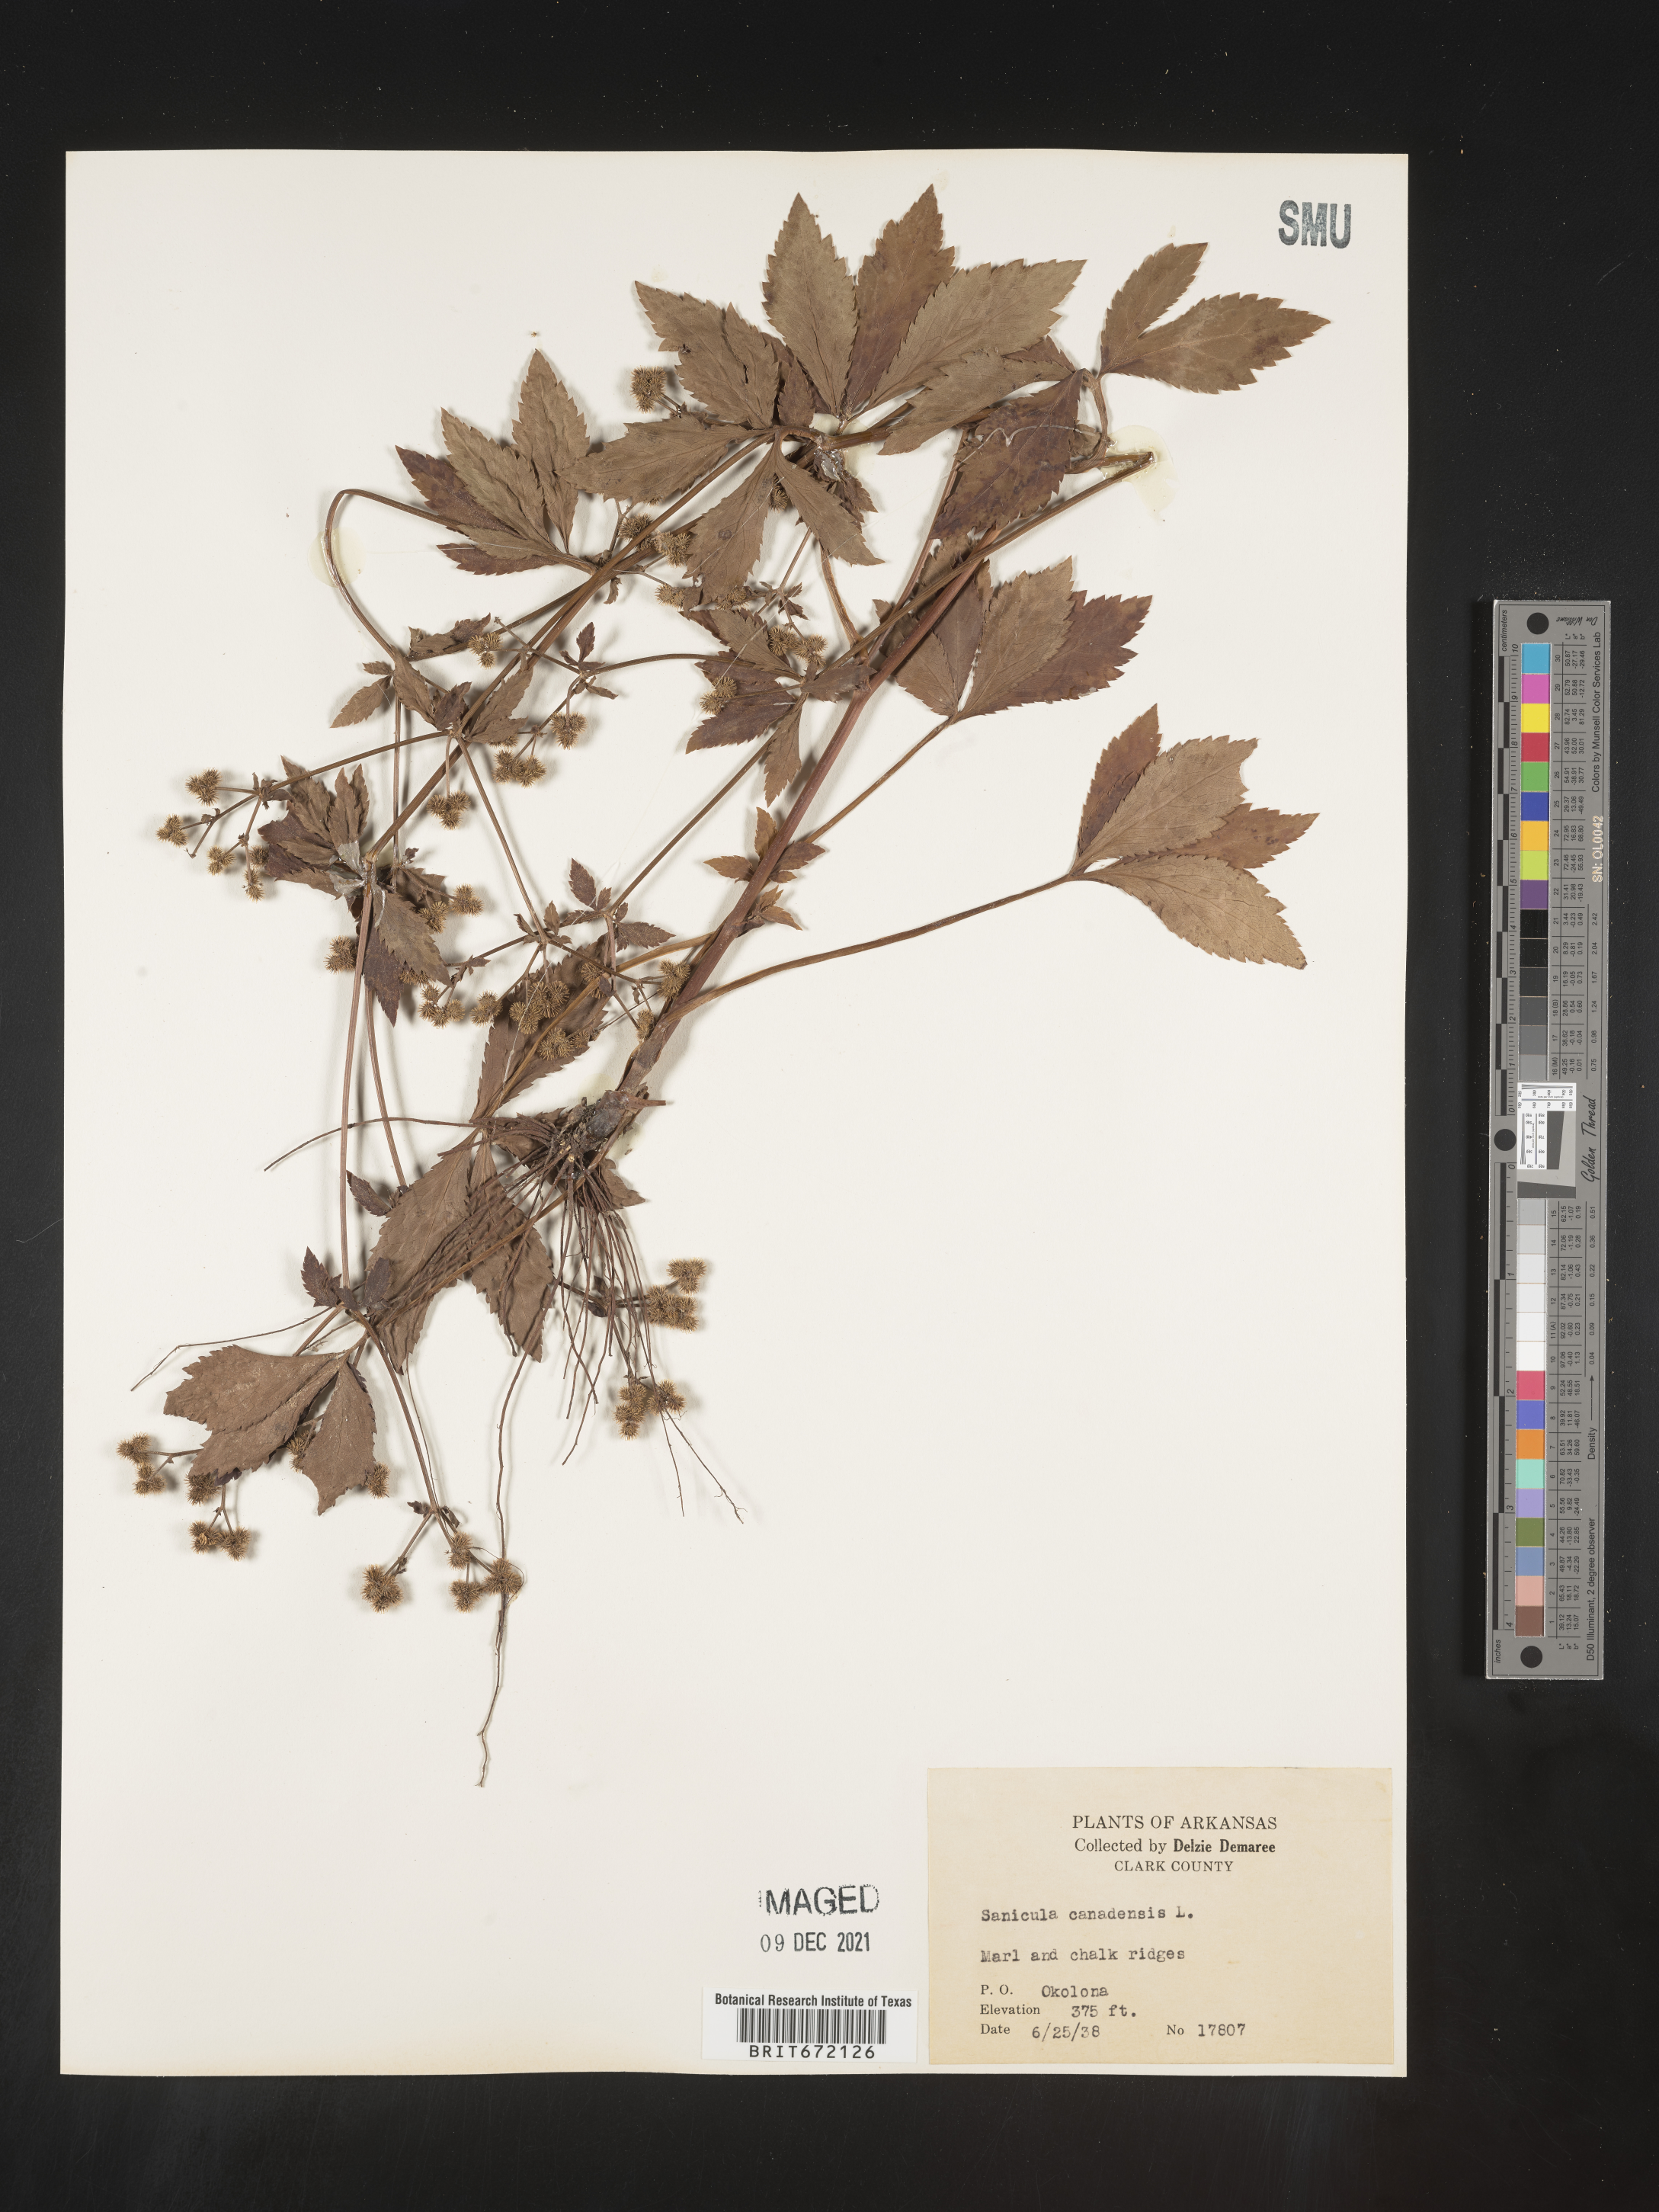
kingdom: Plantae
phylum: Tracheophyta
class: Magnoliopsida
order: Apiales
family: Apiaceae
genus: Sanicula
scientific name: Sanicula canadensis
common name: Canada sanicle
